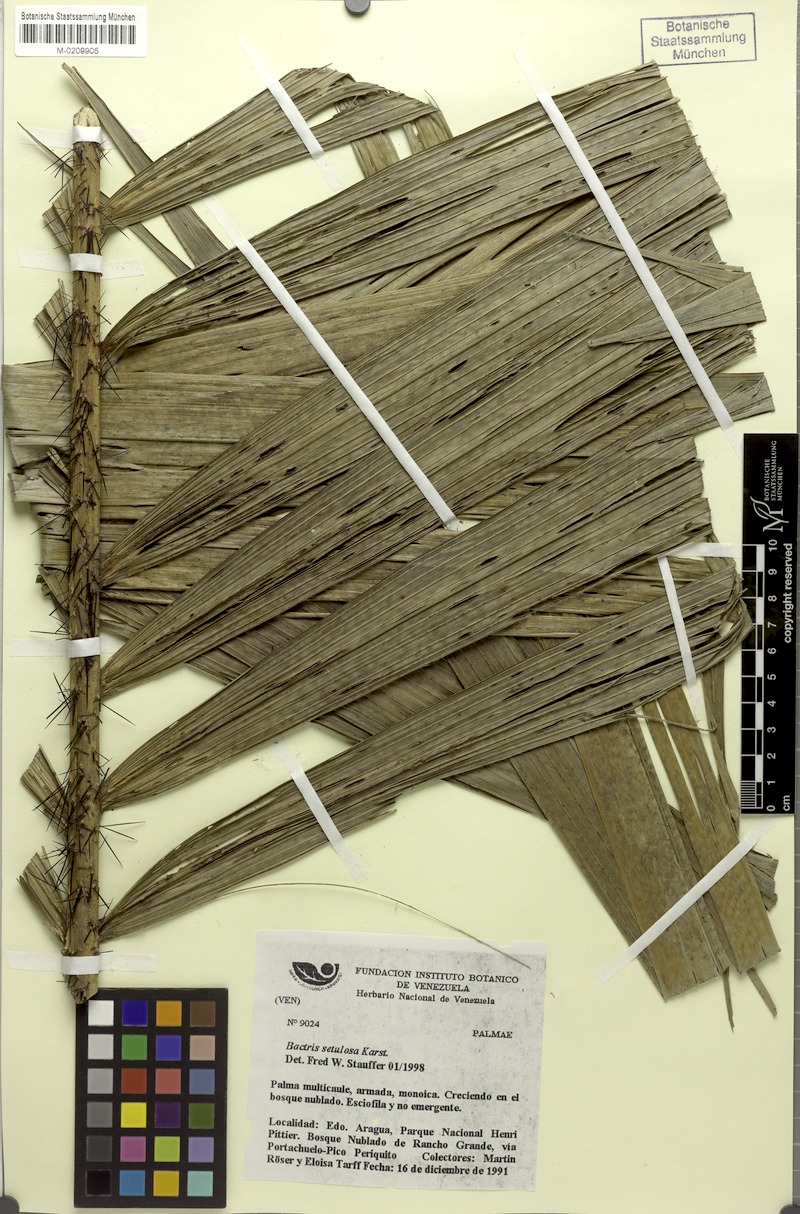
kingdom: Plantae
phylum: Tracheophyta
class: Liliopsida
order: Arecales
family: Arecaceae
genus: Bactris
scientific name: Bactris setulosa
